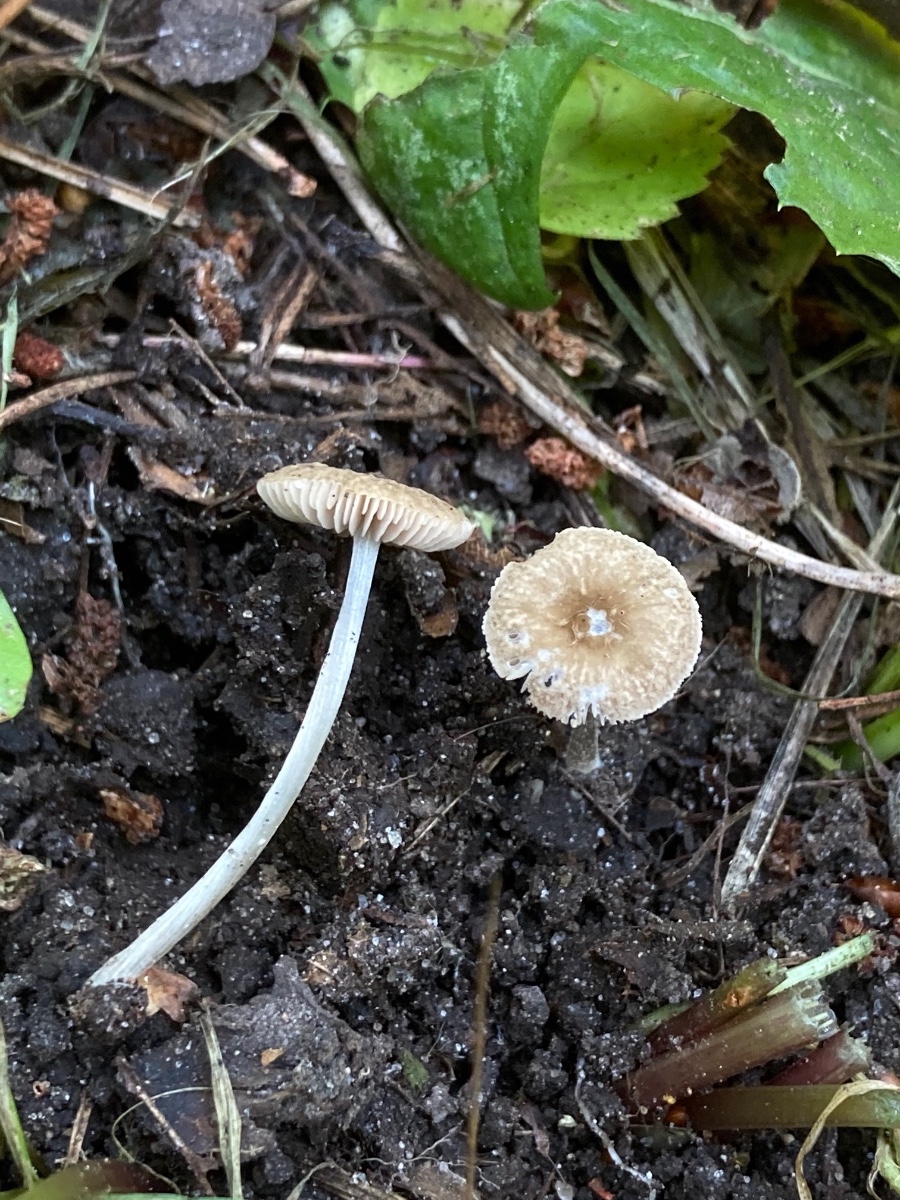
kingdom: Fungi
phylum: Basidiomycota
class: Agaricomycetes
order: Agaricales
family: Pluteaceae
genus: Pluteus
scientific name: Pluteus
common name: gråstokket skærmhat
